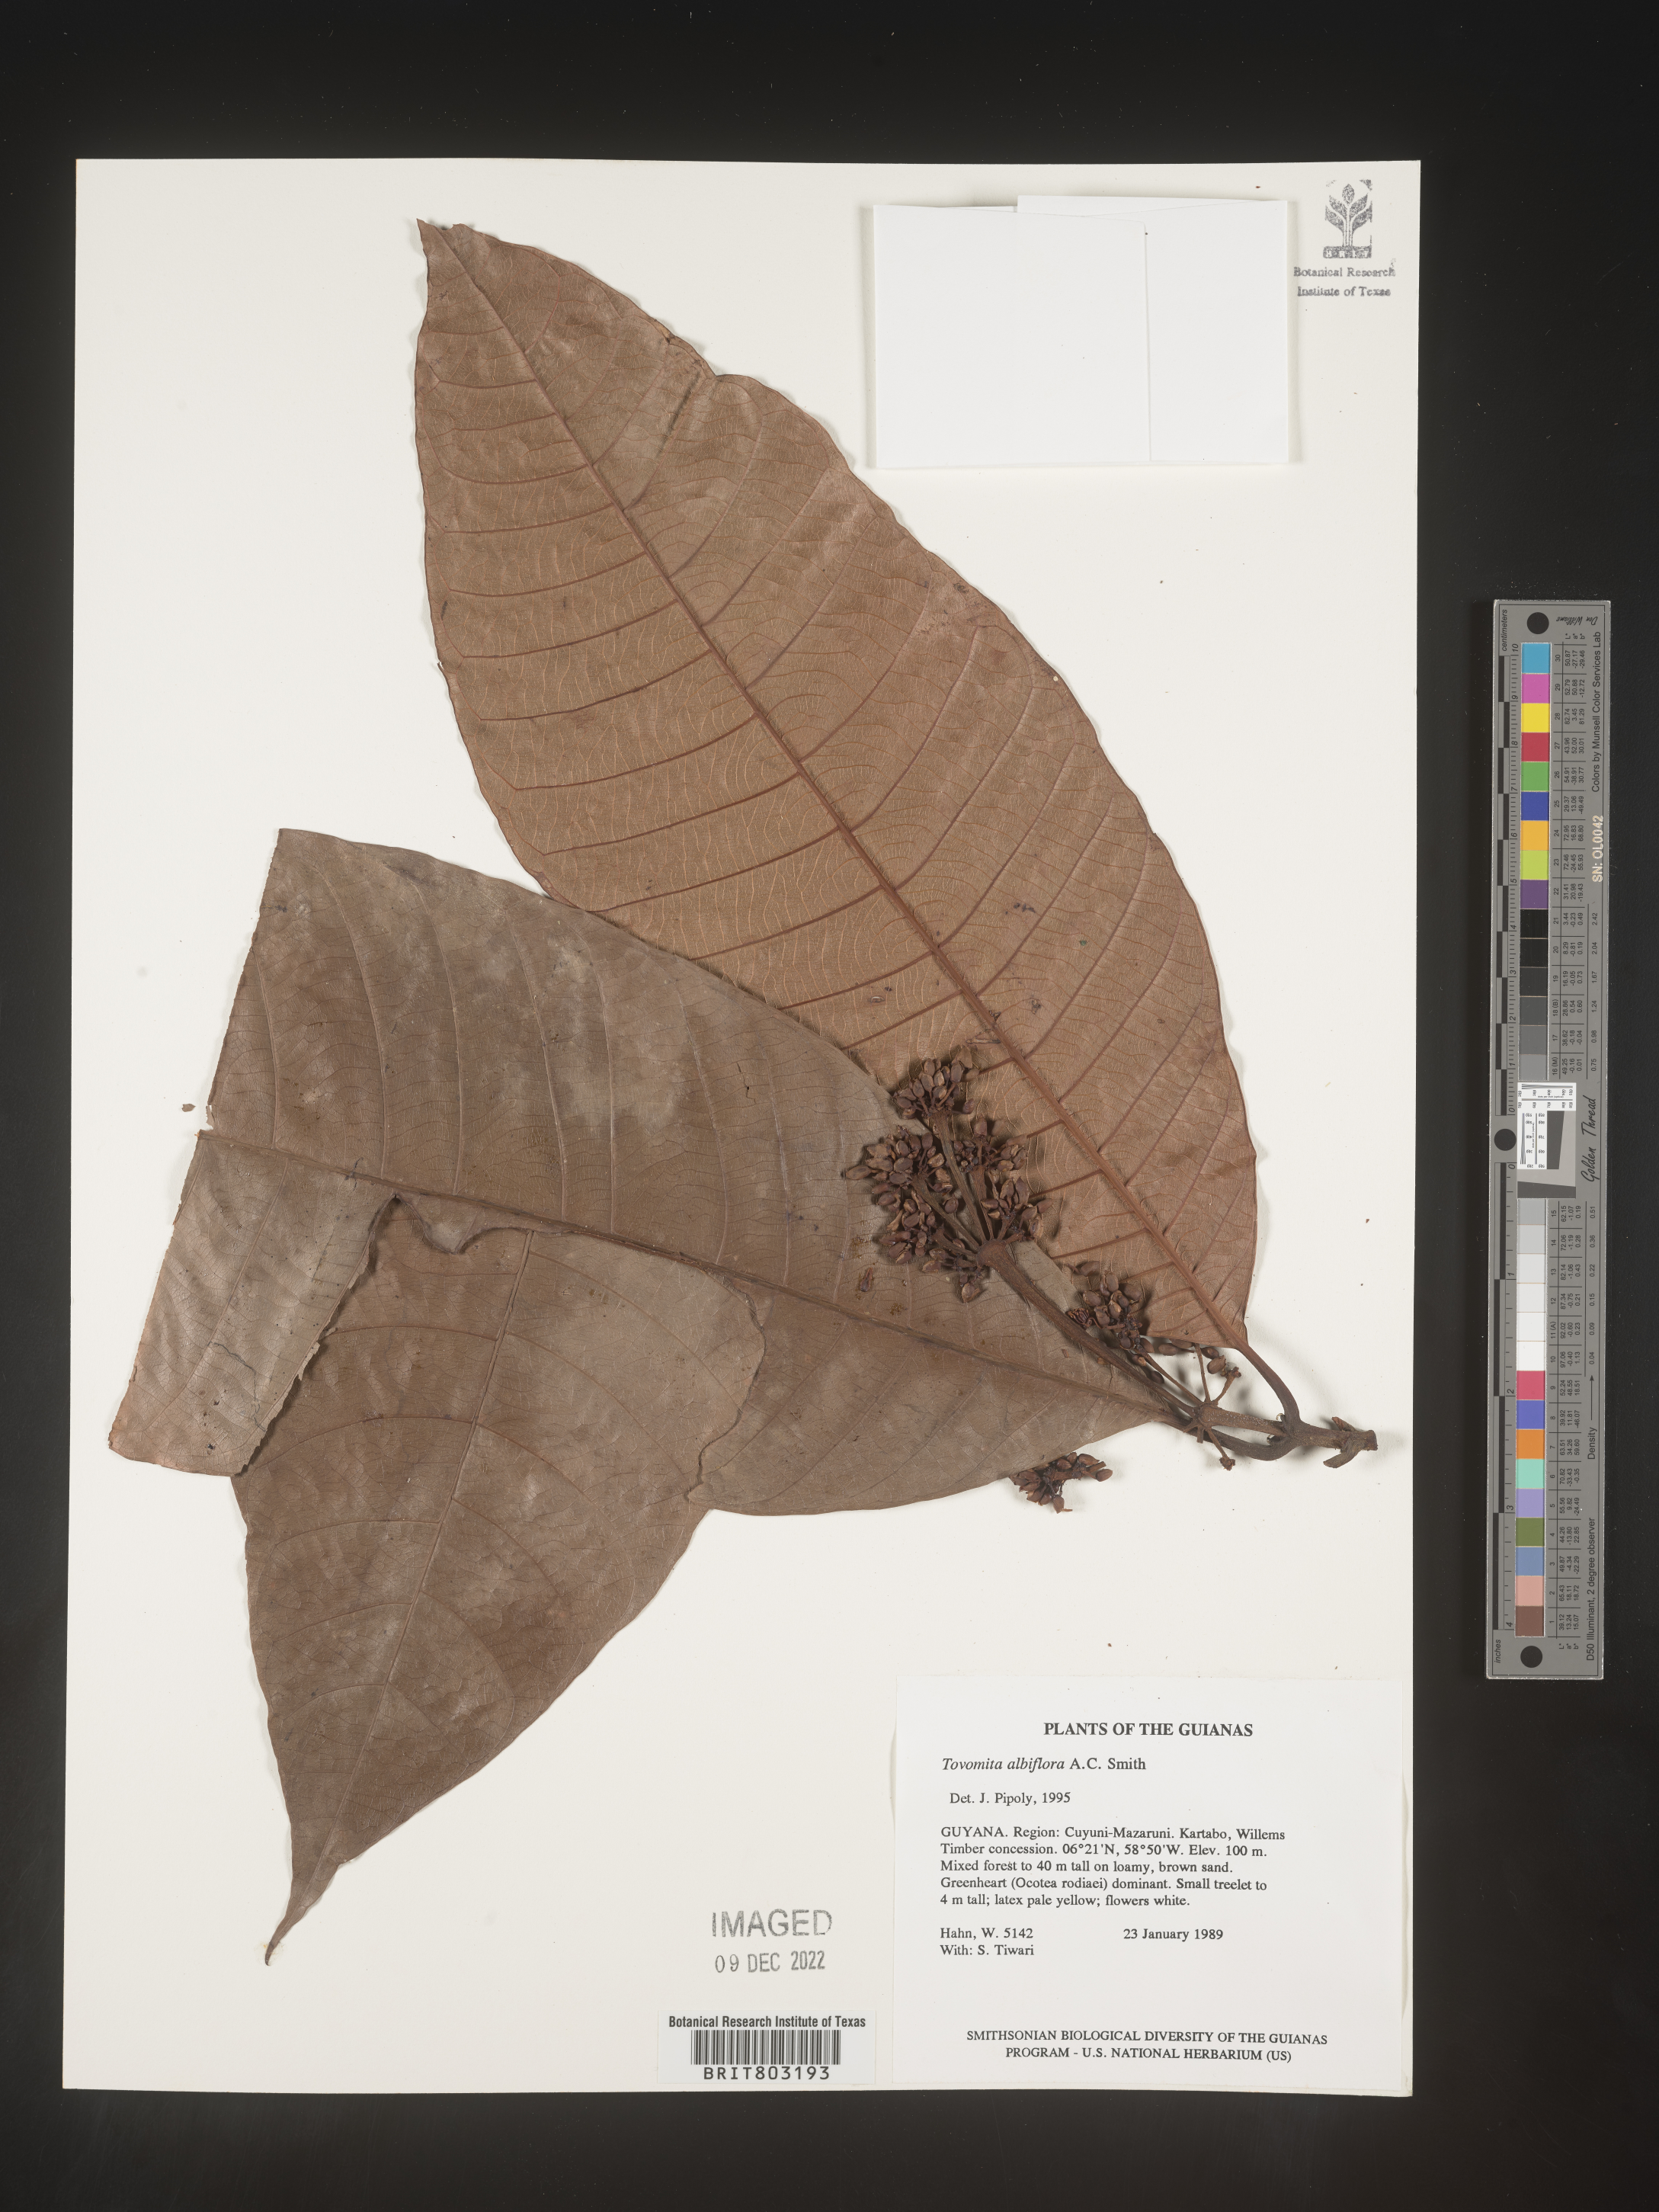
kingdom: Plantae
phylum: Tracheophyta
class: Magnoliopsida
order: Malpighiales
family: Clusiaceae
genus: Tovomita
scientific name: Tovomita
